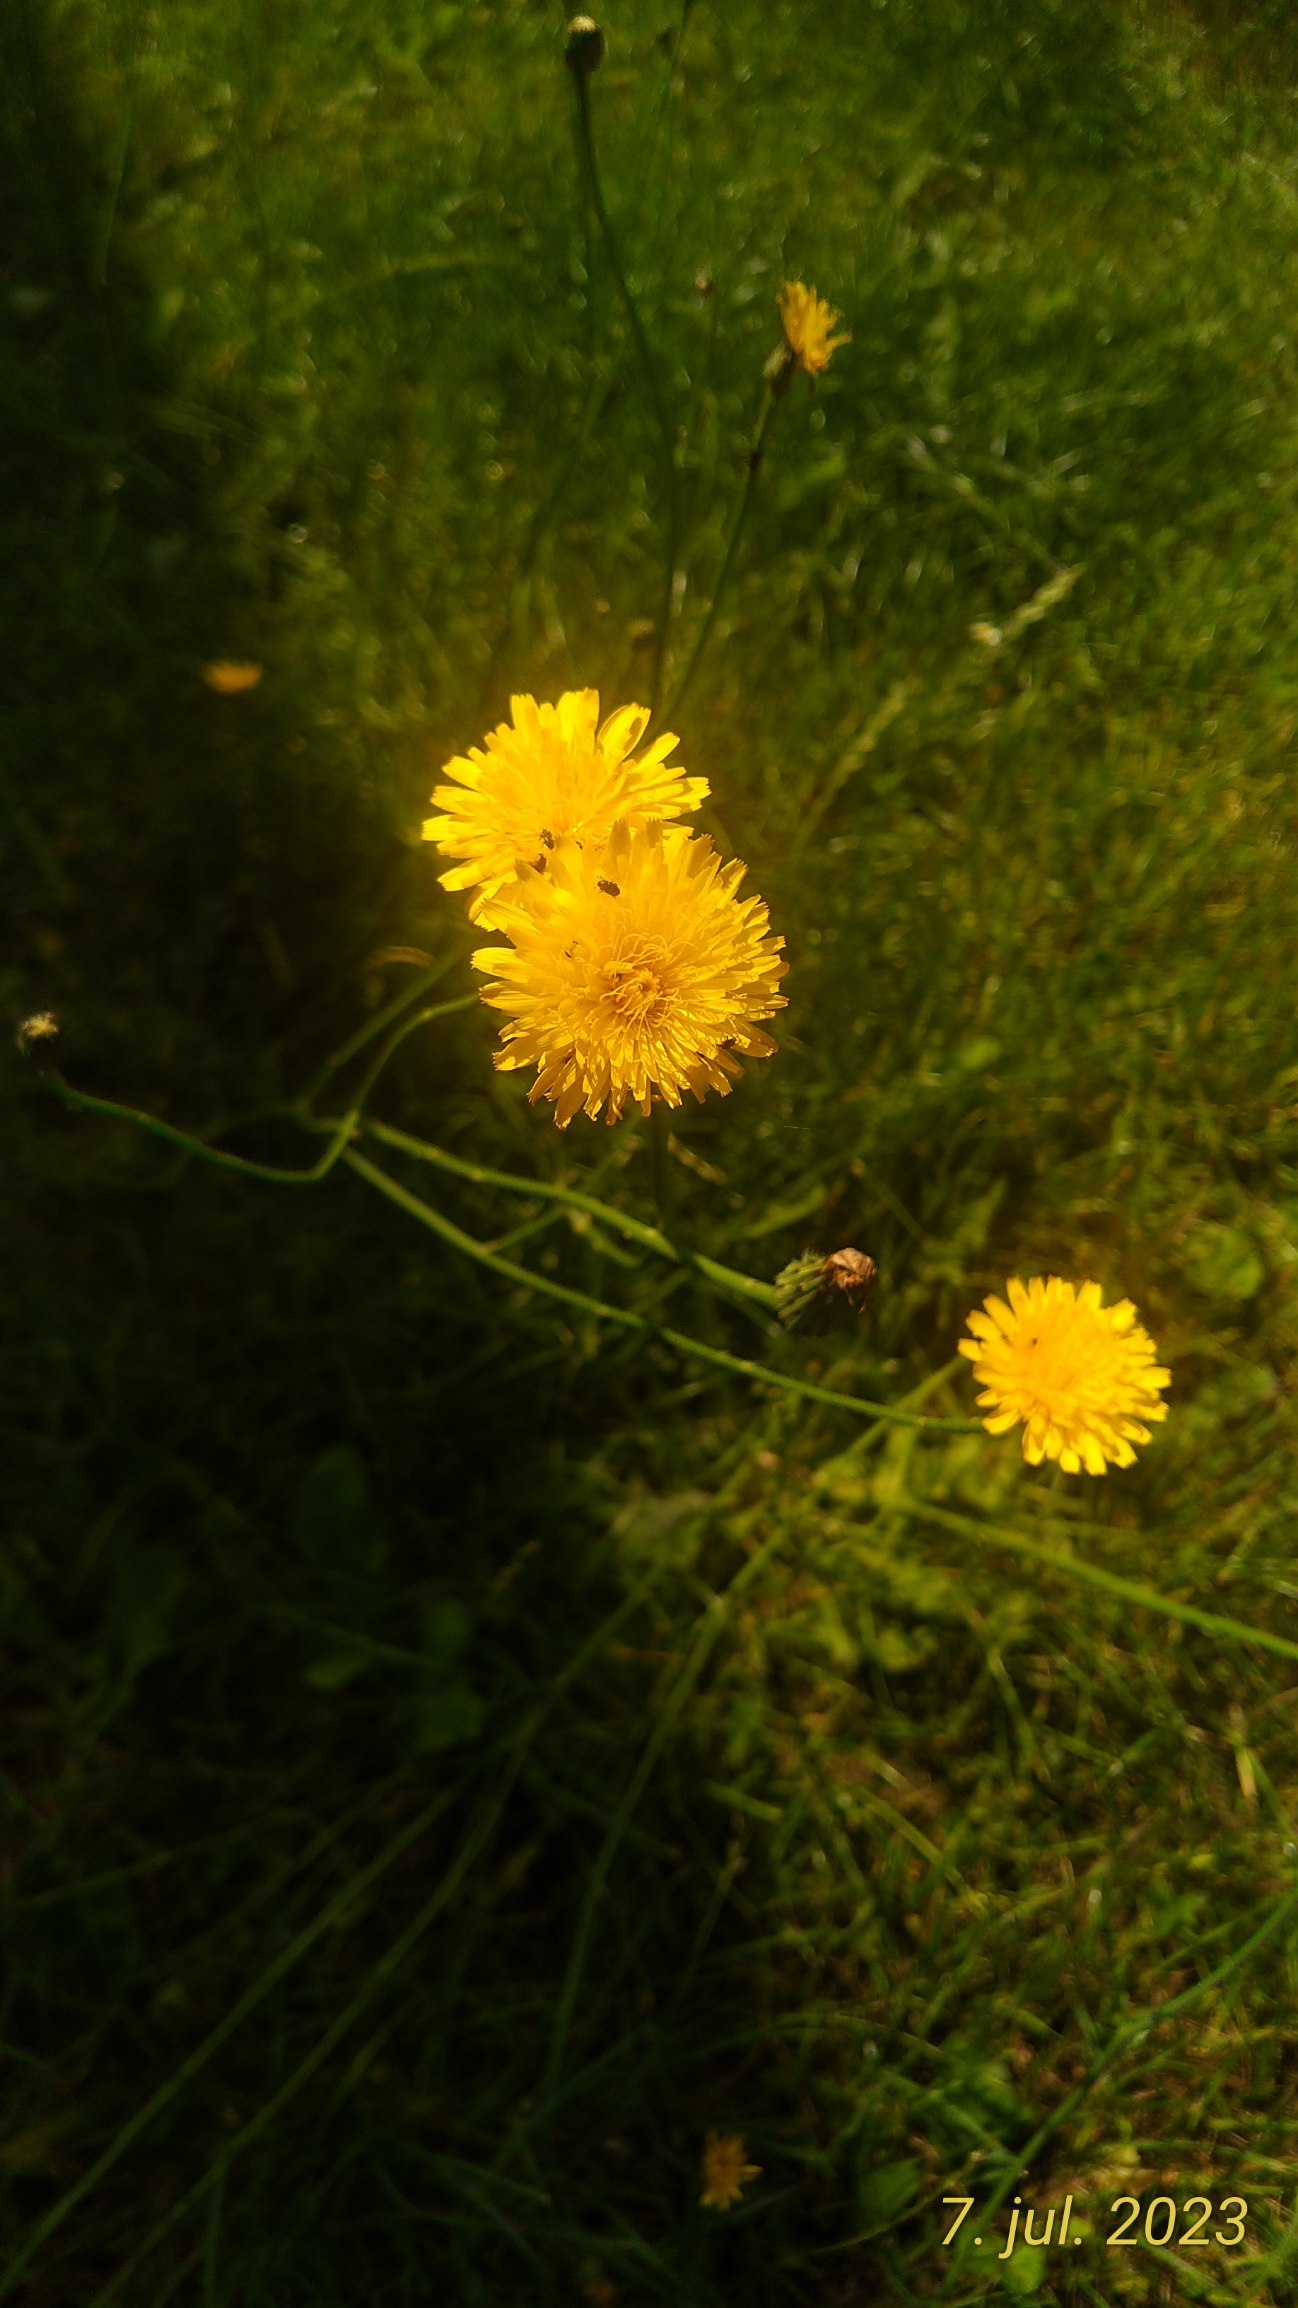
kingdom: Plantae
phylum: Tracheophyta
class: Magnoliopsida
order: Asterales
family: Asteraceae
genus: Hypochaeris
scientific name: Hypochaeris radicata
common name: Almindelig kongepen
